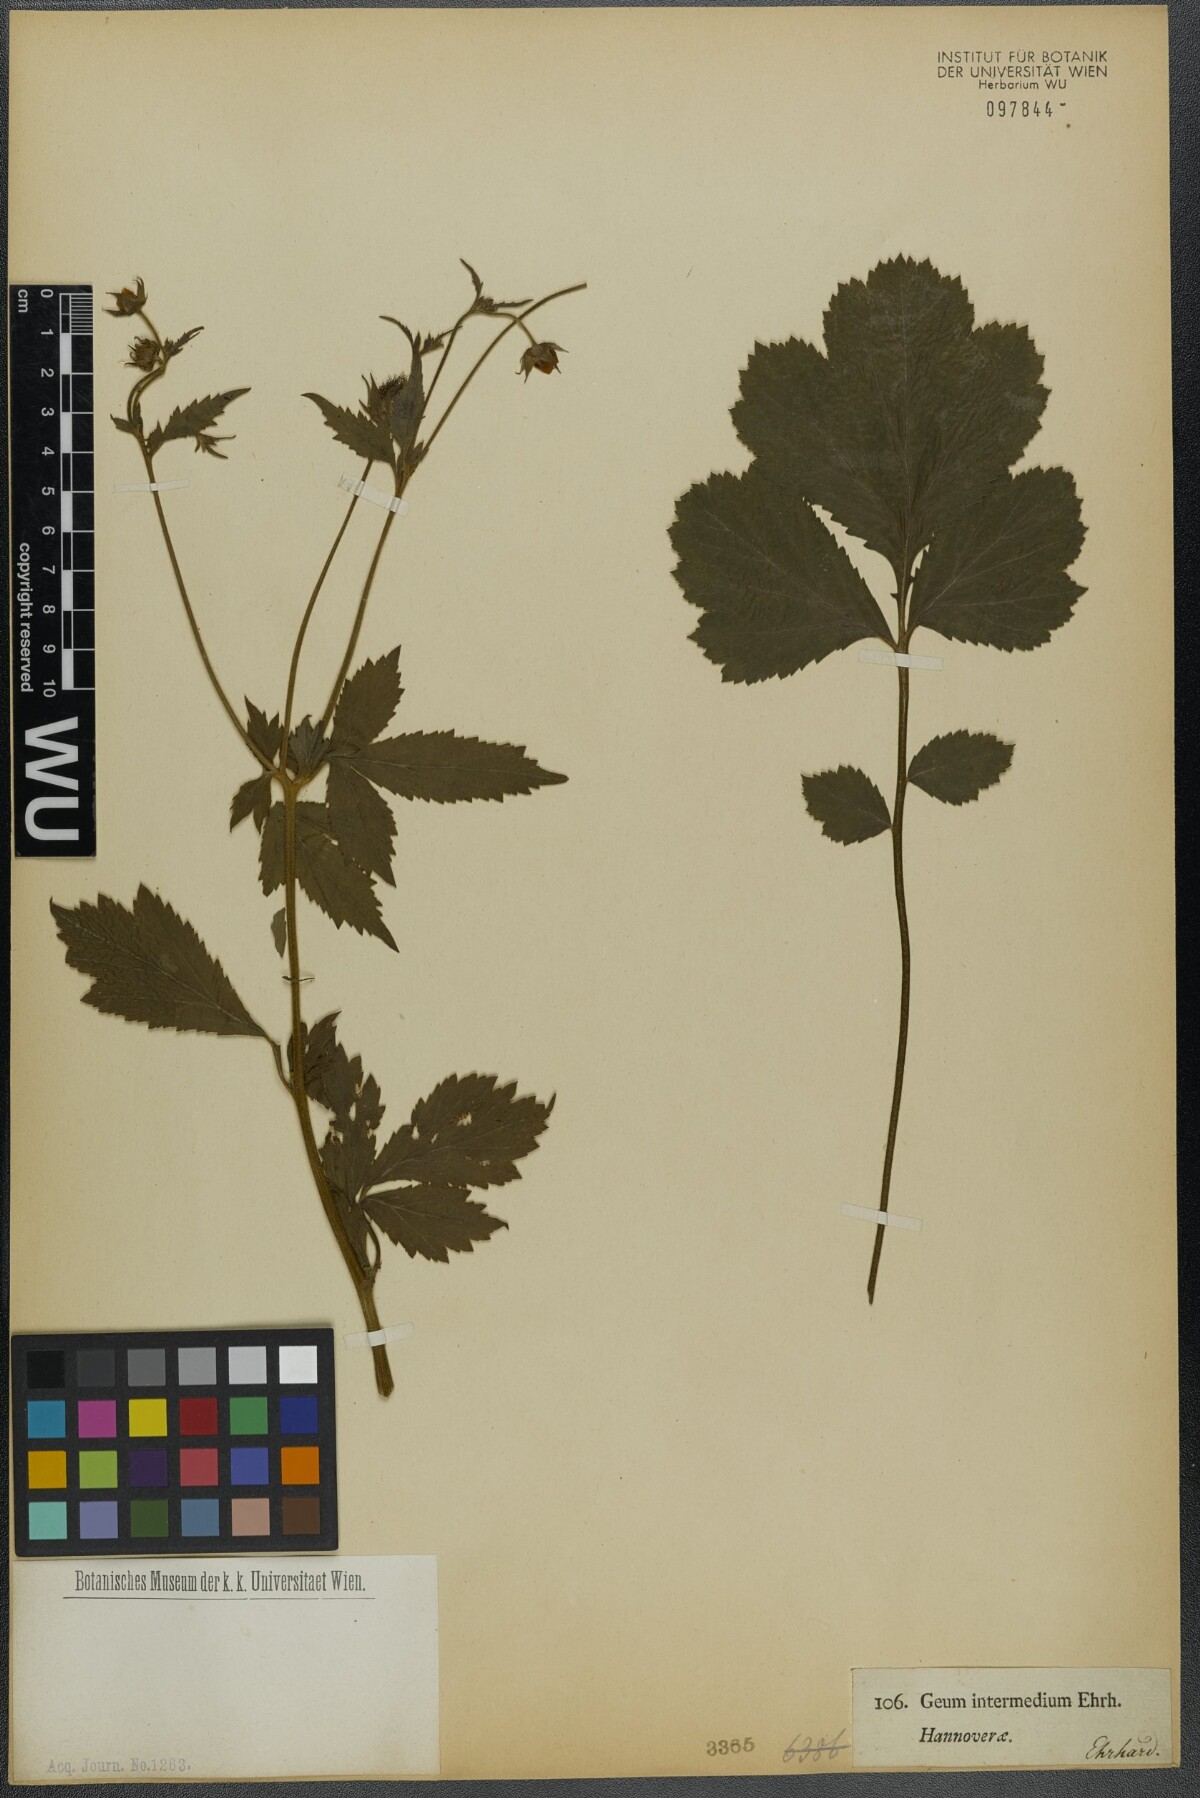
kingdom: Plantae
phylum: Tracheophyta
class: Magnoliopsida
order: Rosales
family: Rosaceae
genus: Geum
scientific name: Geum intermedium
